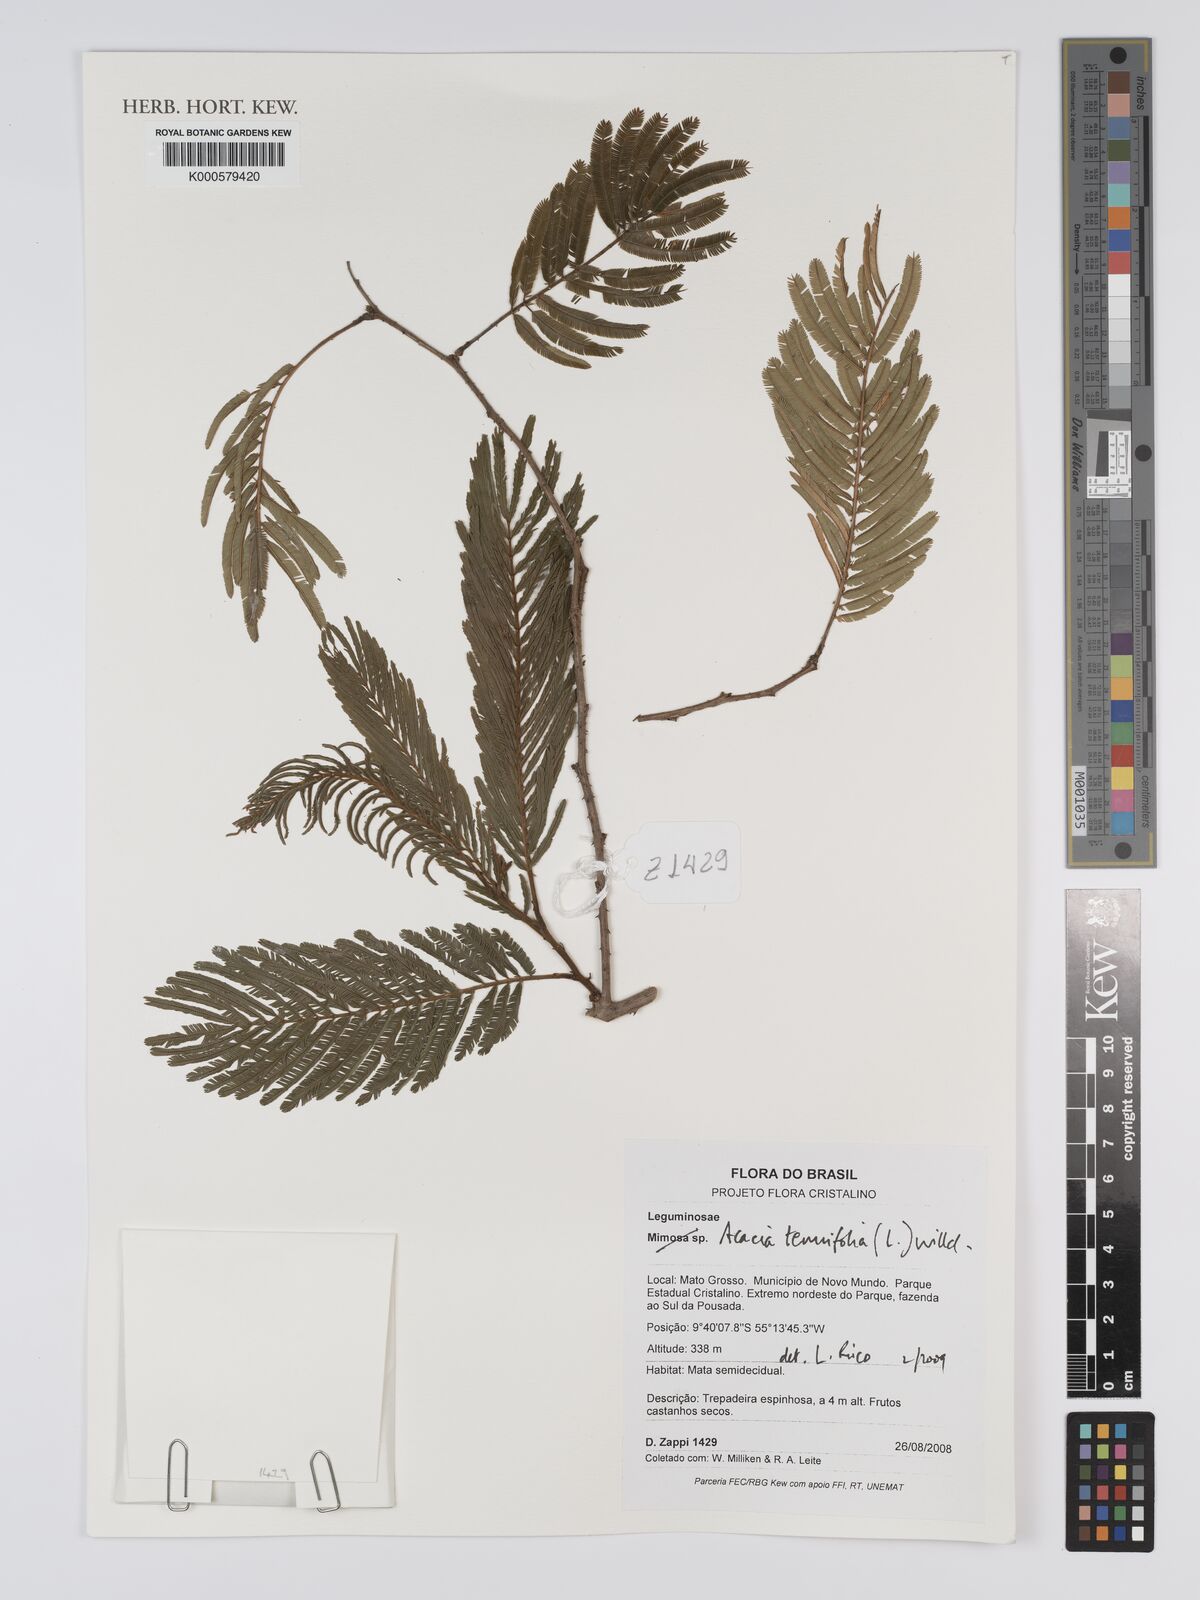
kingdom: Plantae
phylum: Tracheophyta
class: Magnoliopsida
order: Fabales
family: Fabaceae
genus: Senegalia
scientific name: Senegalia tenuifolia
